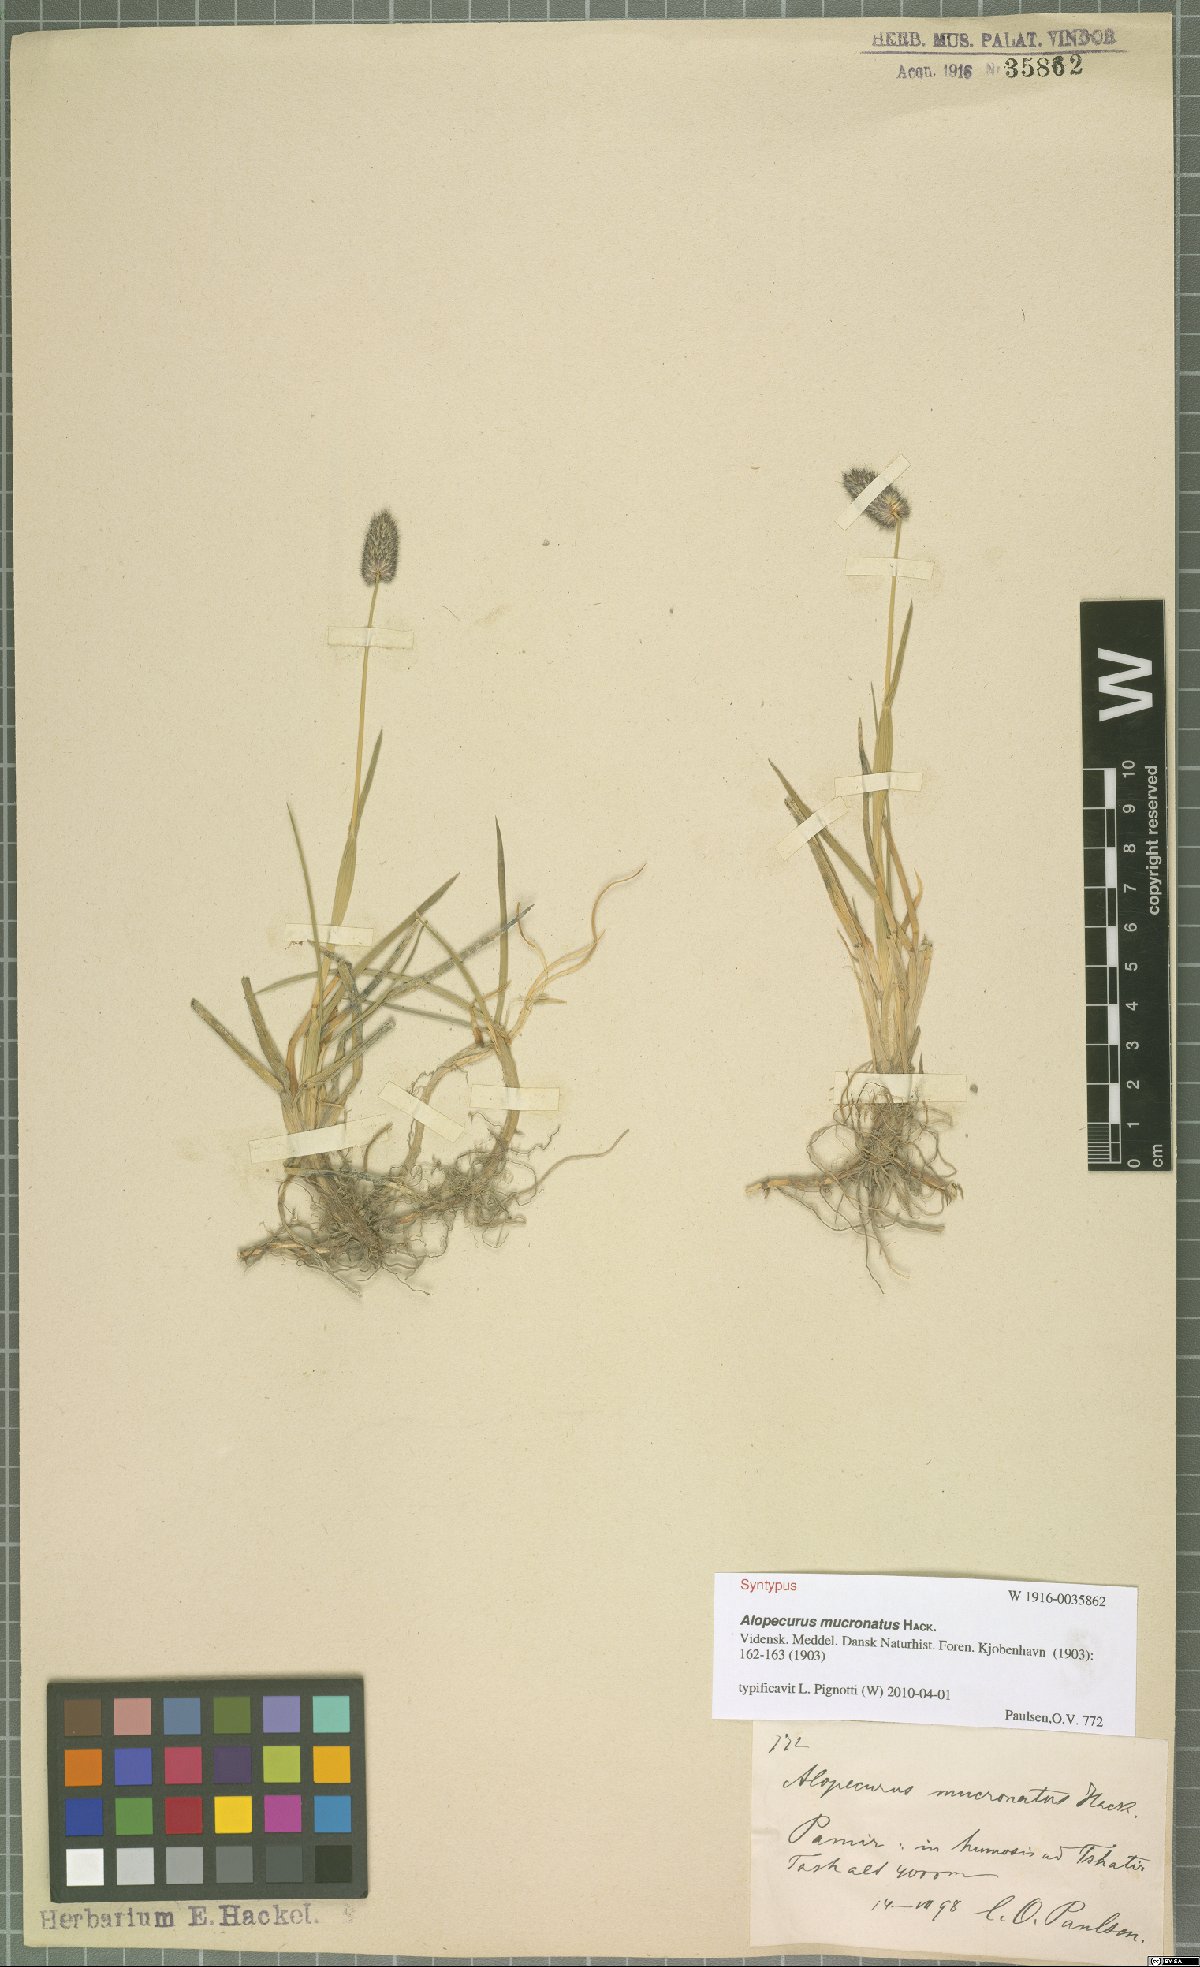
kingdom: Plantae
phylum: Tracheophyta
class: Liliopsida
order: Poales
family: Poaceae
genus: Alopecurus
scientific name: Alopecurus mucronatus
